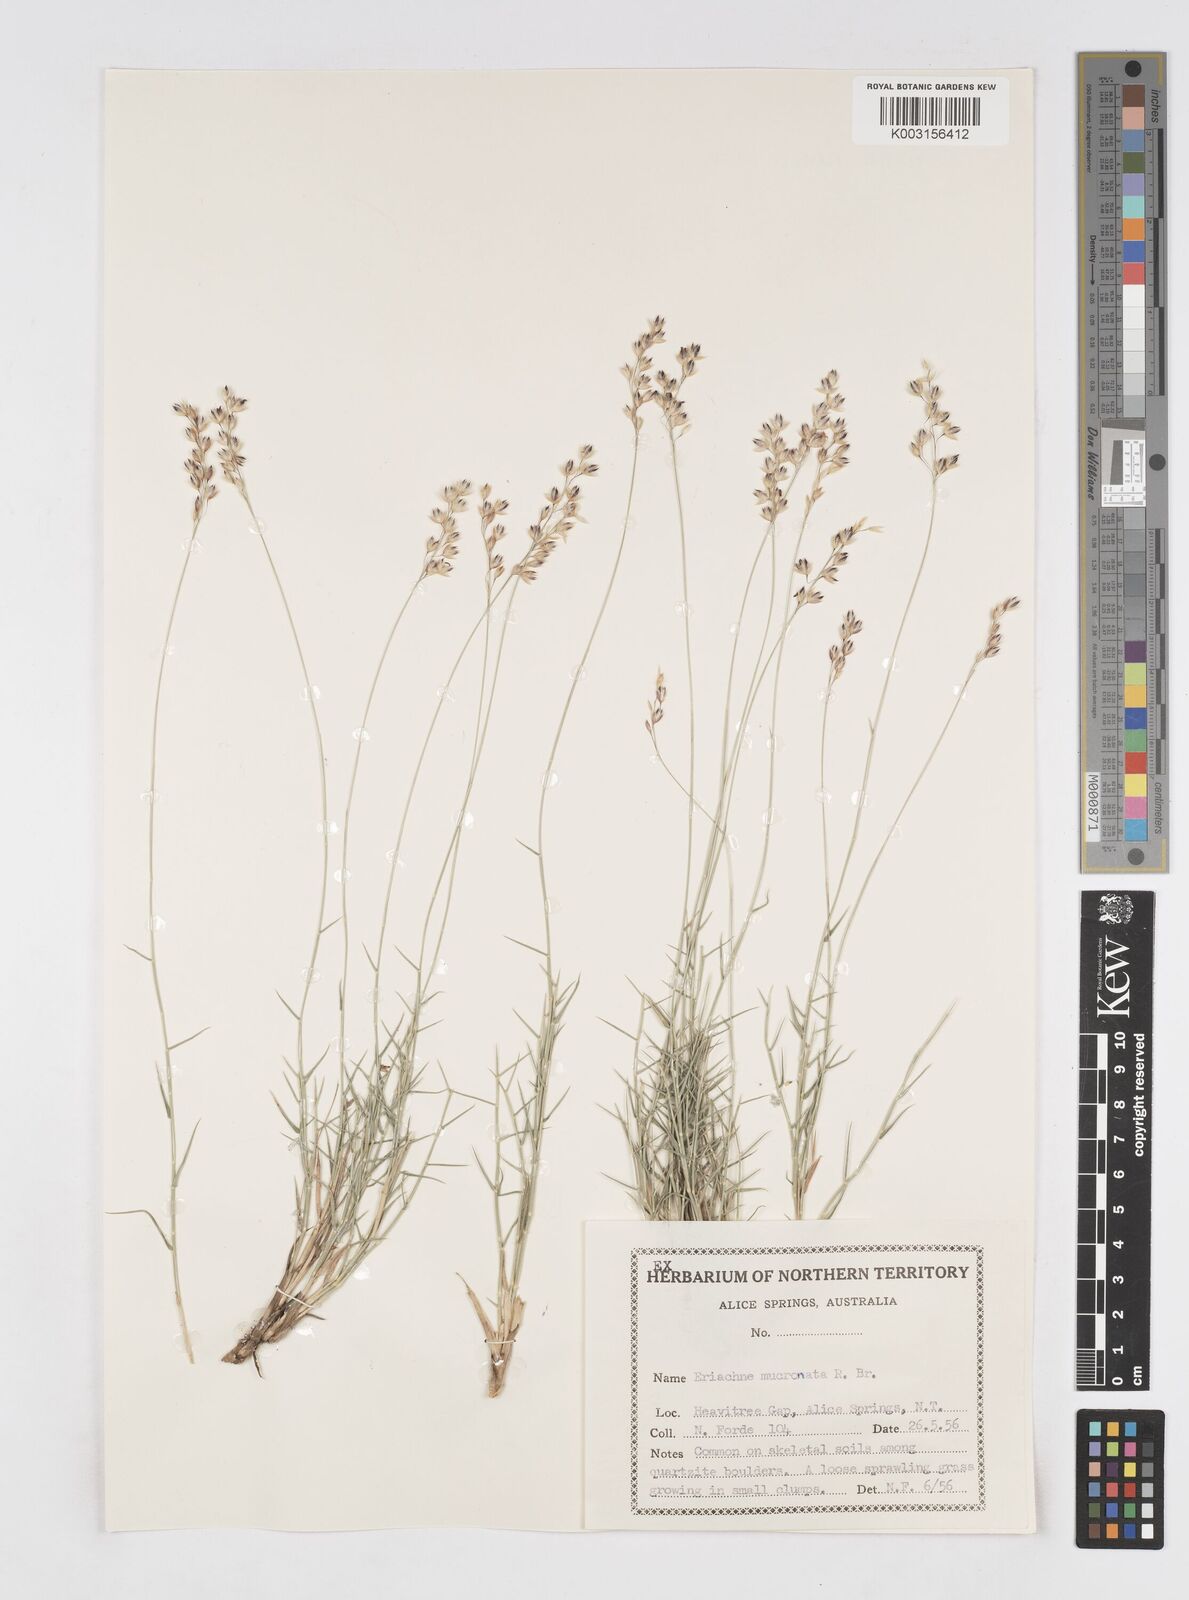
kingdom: Plantae
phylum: Tracheophyta
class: Liliopsida
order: Poales
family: Poaceae
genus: Eriachne
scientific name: Eriachne mucronata
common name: Mountain wanderrie grass
